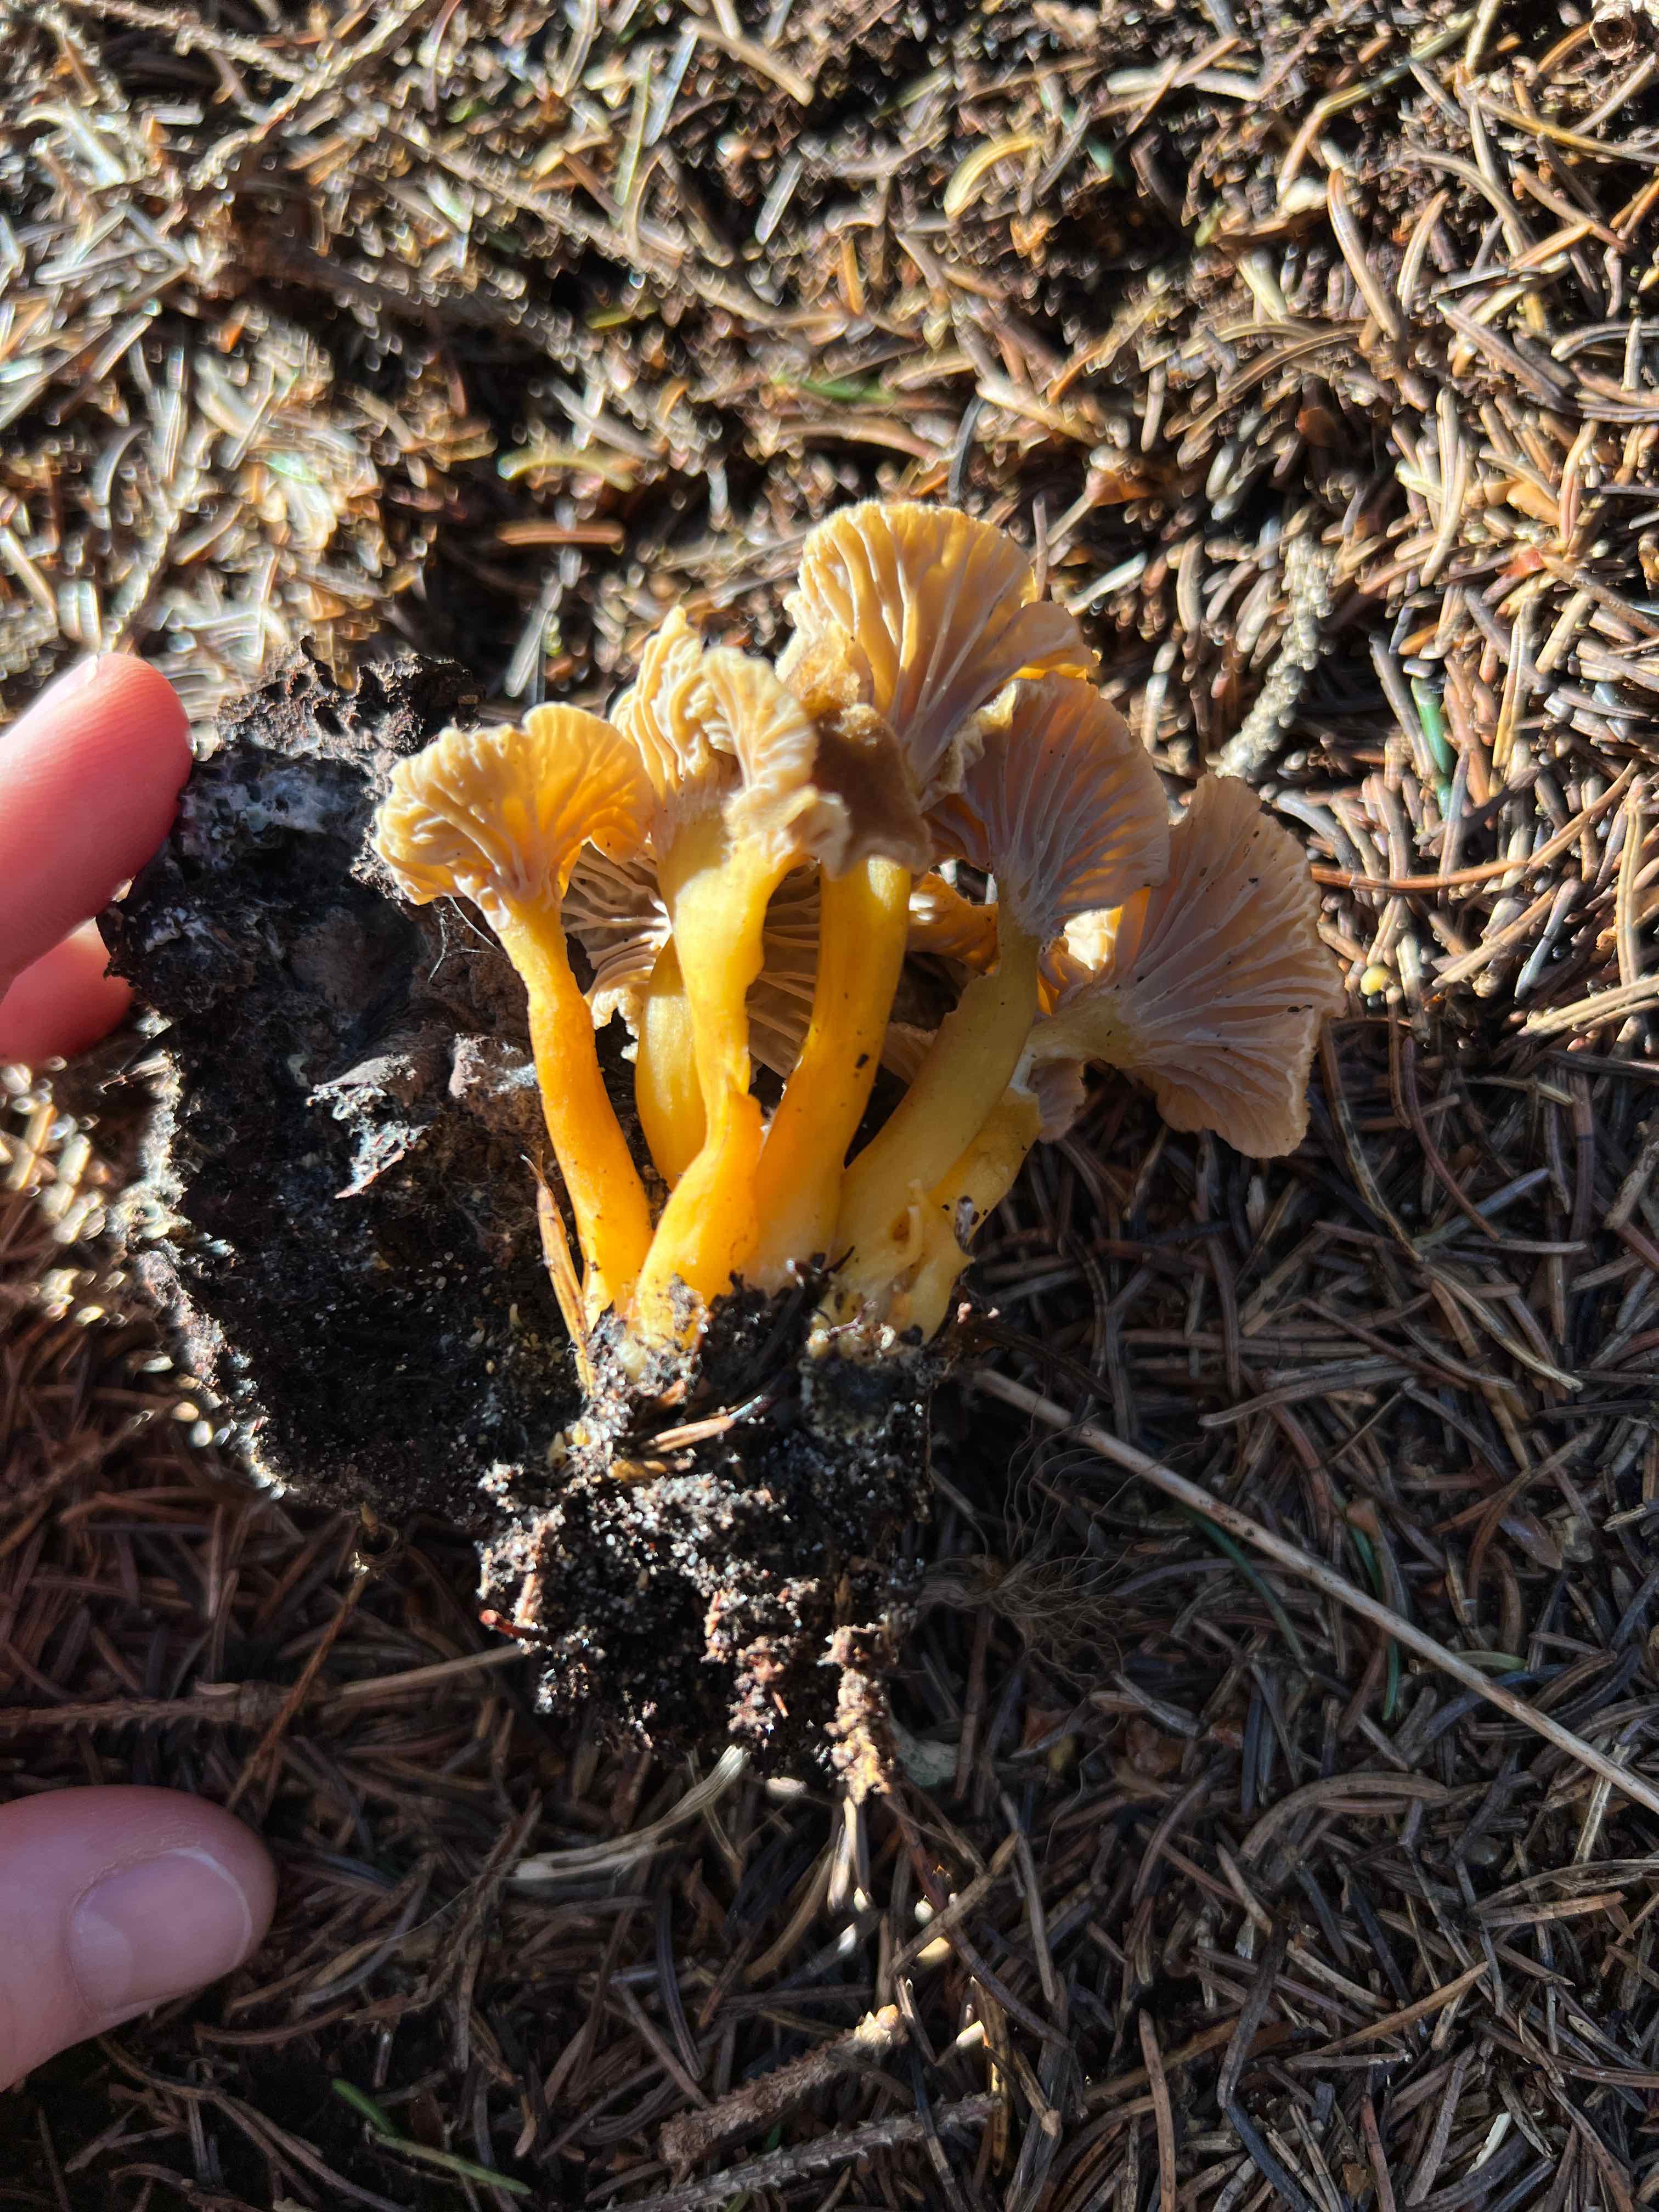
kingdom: Fungi
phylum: Basidiomycota
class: Agaricomycetes
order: Cantharellales
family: Hydnaceae
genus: Craterellus
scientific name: Craterellus tubaeformis
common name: tragt-kantarel
